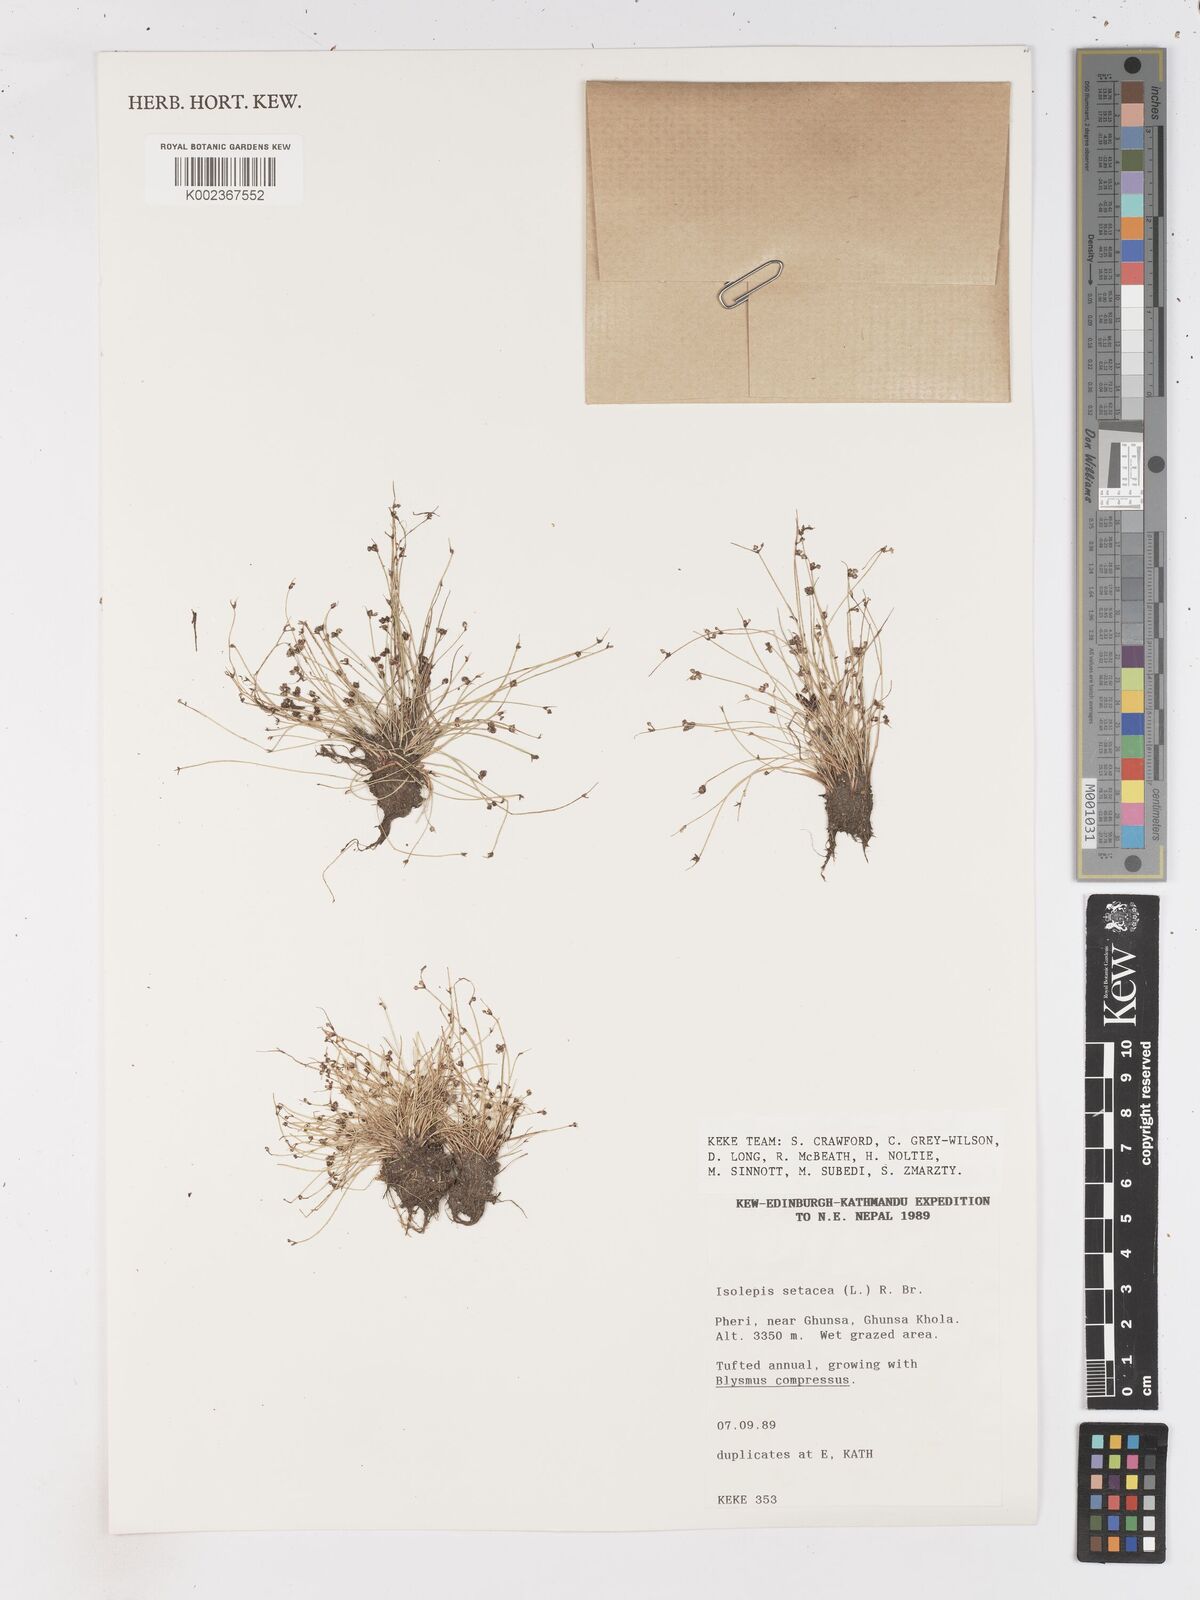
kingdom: Plantae
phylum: Tracheophyta
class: Liliopsida
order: Poales
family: Cyperaceae
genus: Isolepis
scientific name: Isolepis setacea
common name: Bristle club-rush
